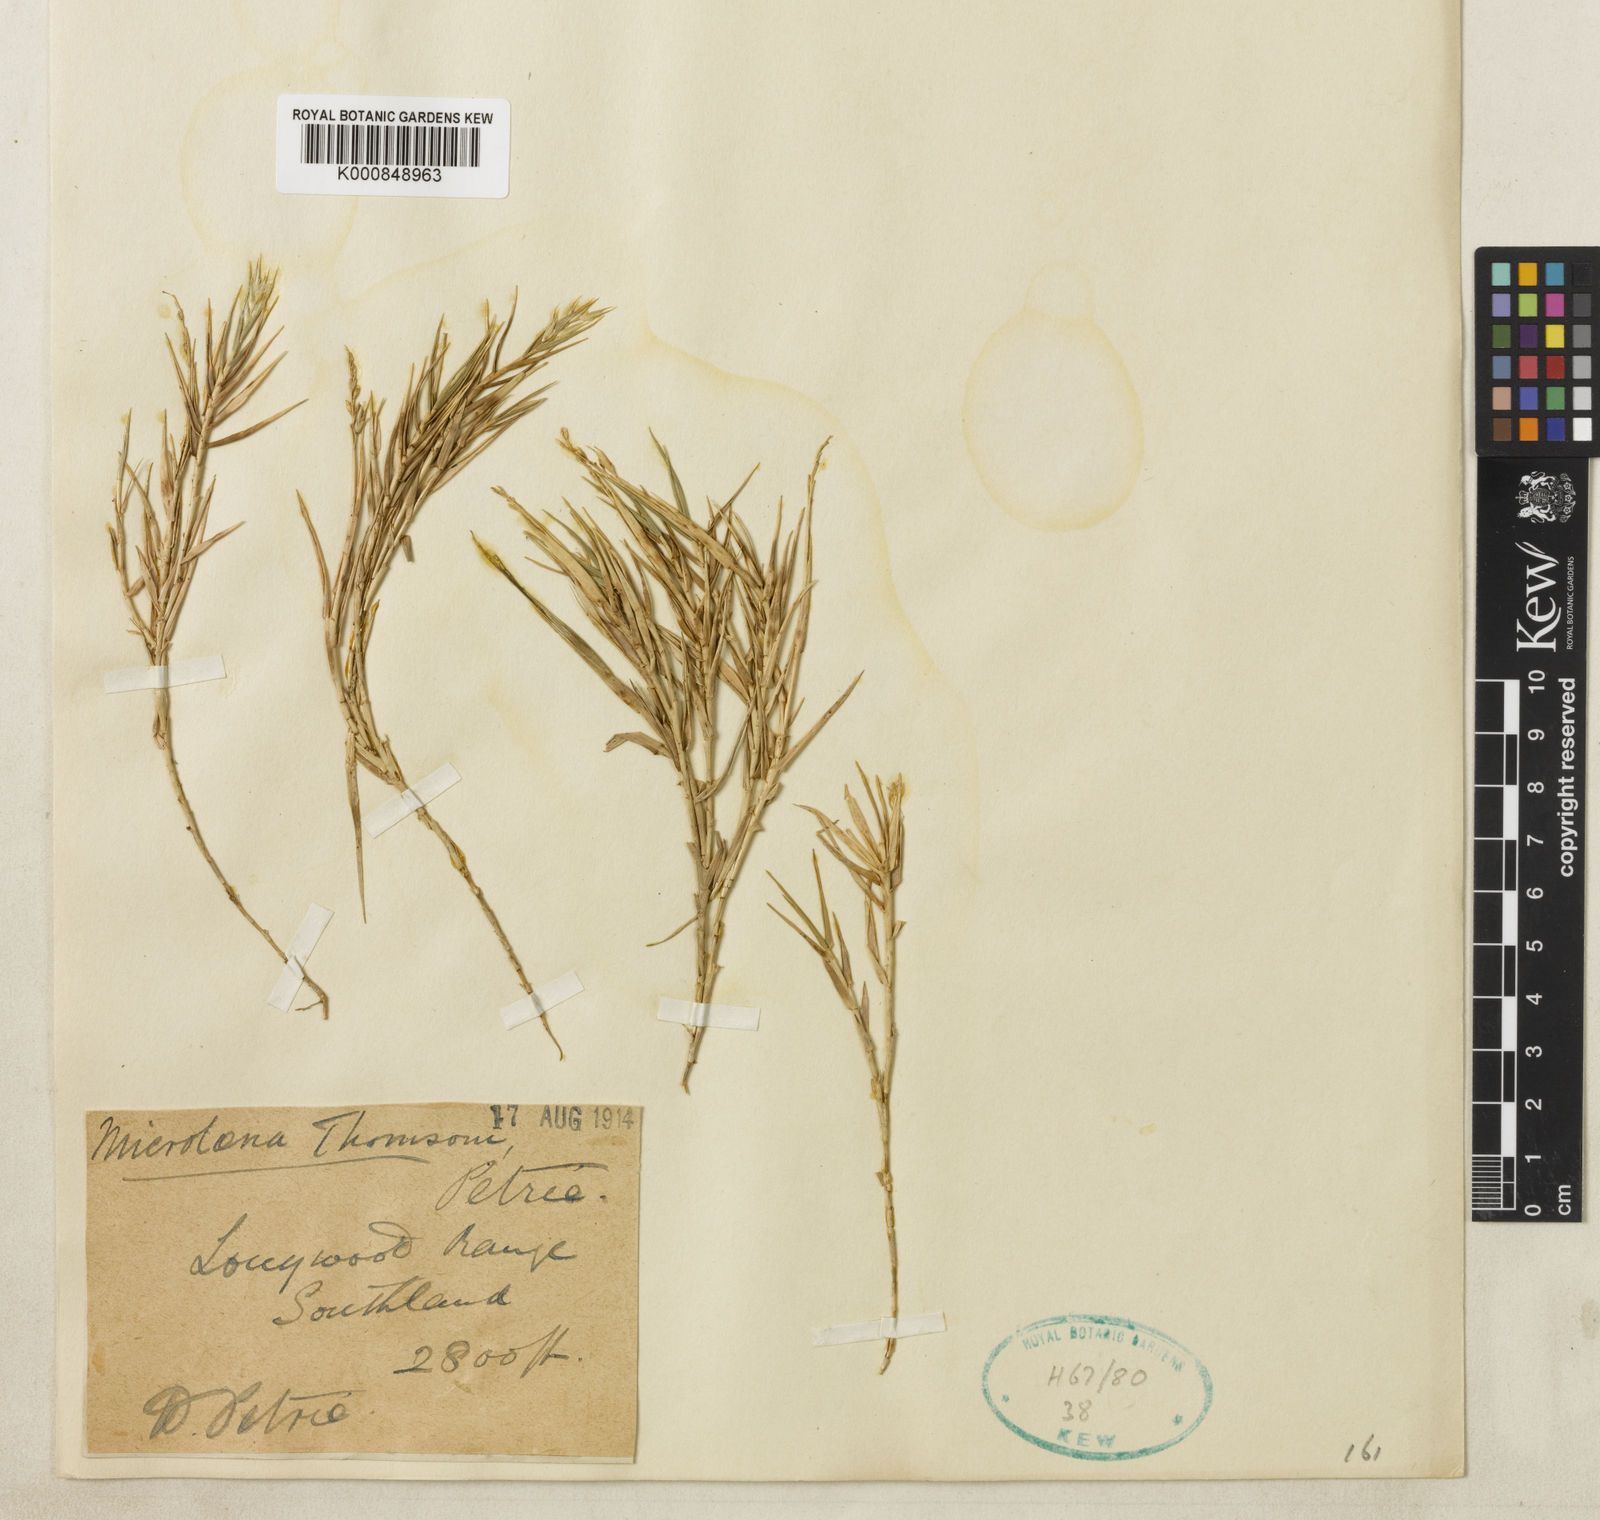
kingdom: Plantae
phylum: Tracheophyta
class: Liliopsida
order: Poales
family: Poaceae
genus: Zotovia
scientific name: Zotovia thomsonii
